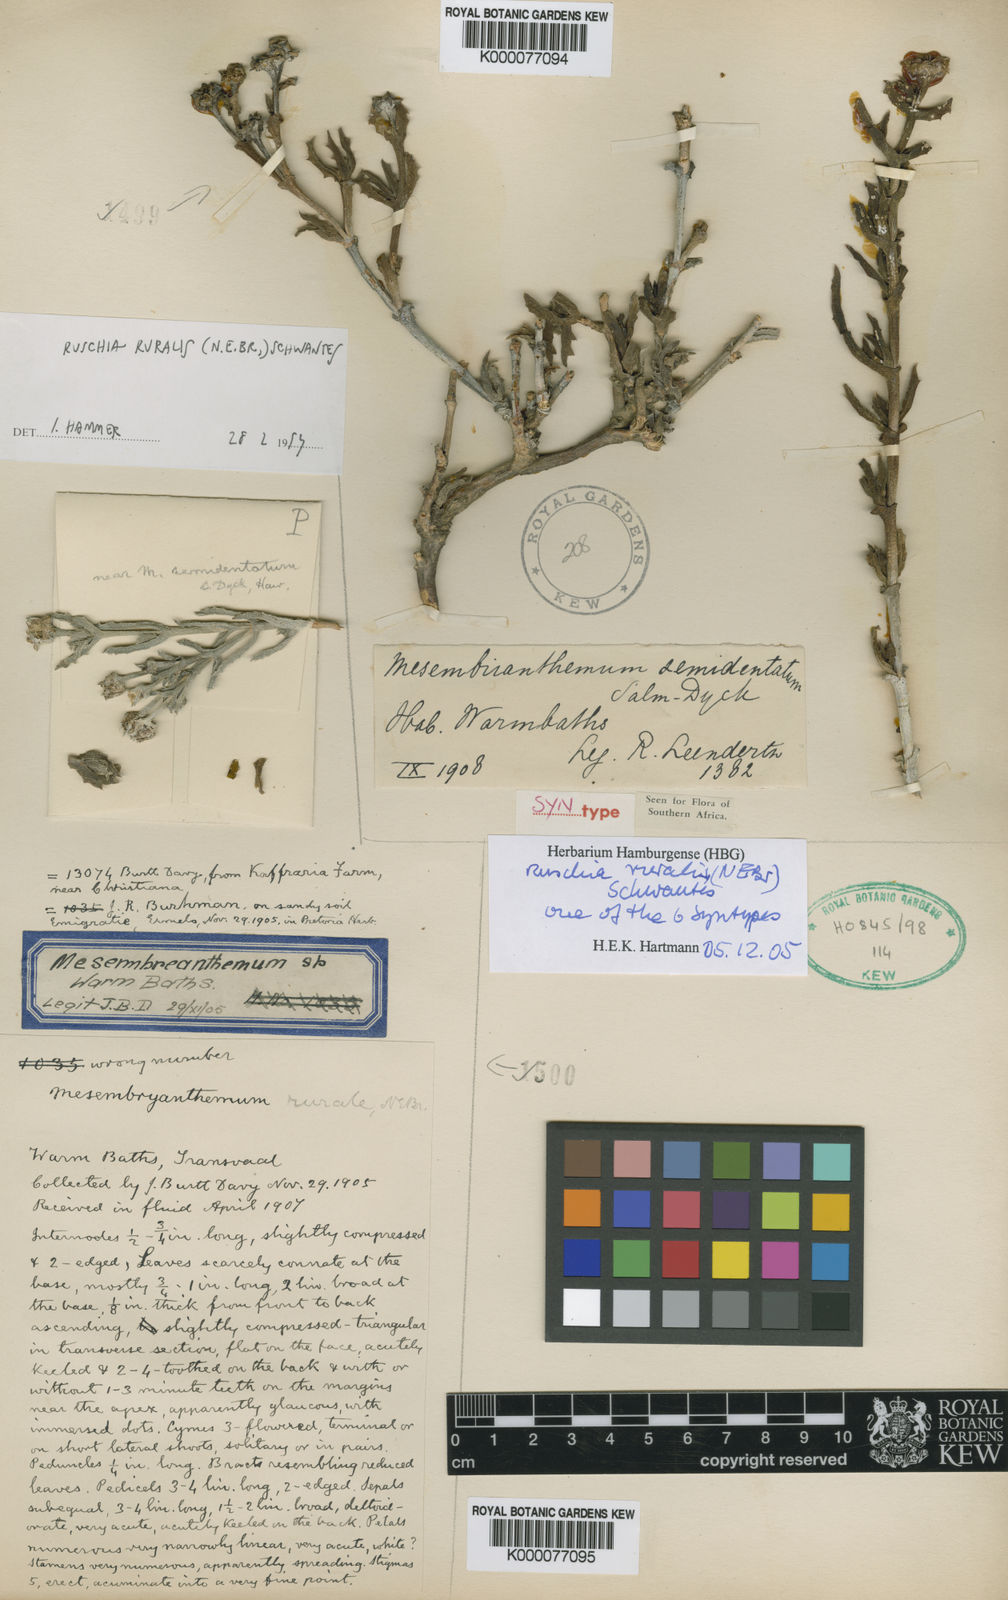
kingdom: Plantae
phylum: Tracheophyta
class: Magnoliopsida
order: Caryophyllales
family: Aizoaceae
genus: Ruschia
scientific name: Ruschia ruralis
